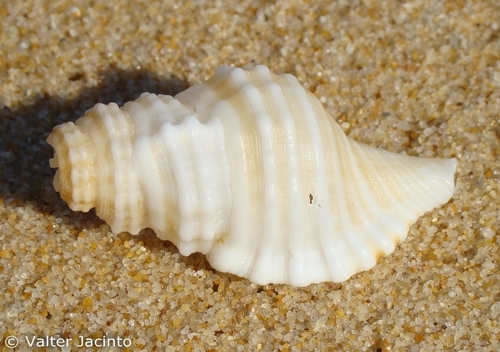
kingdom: Animalia
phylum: Mollusca
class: Gastropoda
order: Littorinimorpha
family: Cymatiidae
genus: Monoplex
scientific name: Monoplex corrugatus
